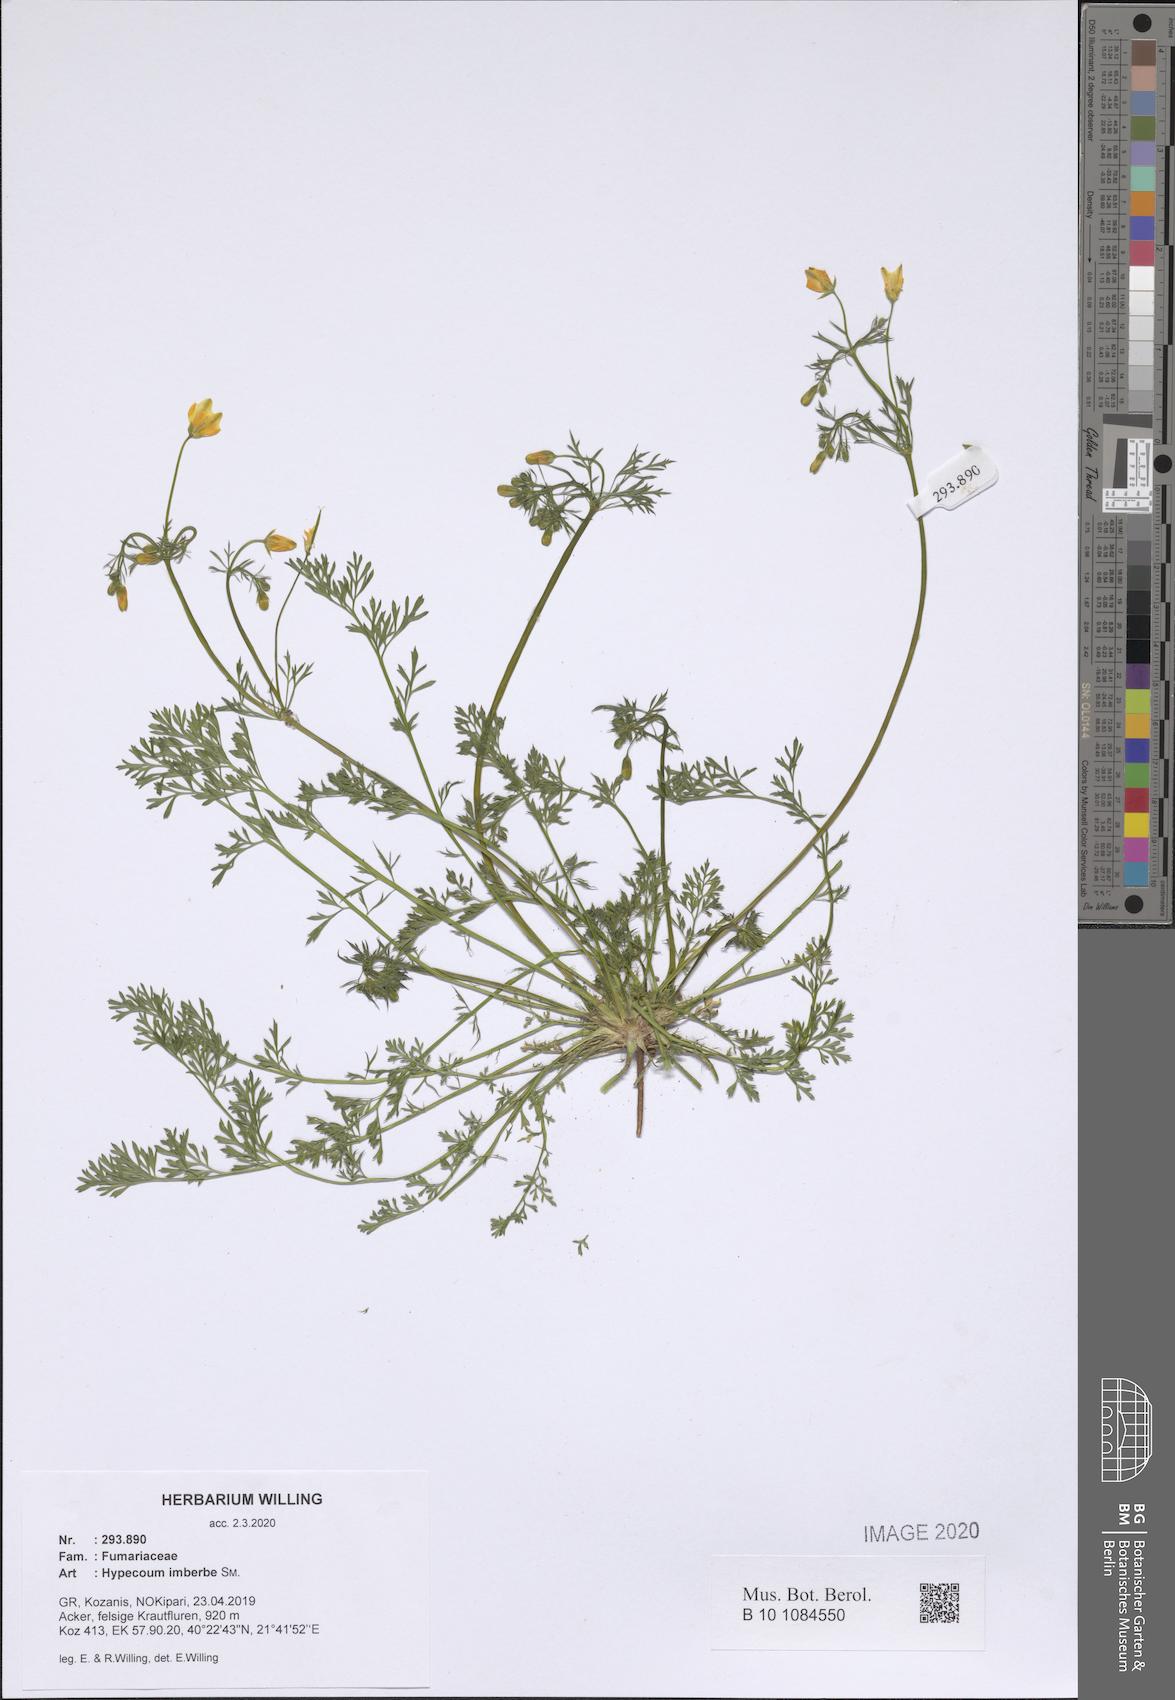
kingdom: Plantae
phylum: Tracheophyta
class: Magnoliopsida
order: Ranunculales
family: Papaveraceae
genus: Hypecoum
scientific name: Hypecoum imberbe
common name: Sicklefruit hypecoum
